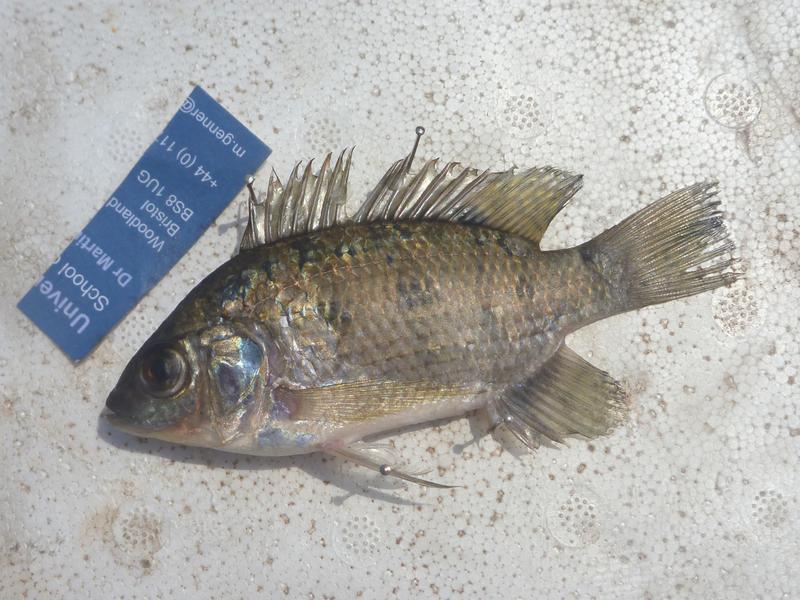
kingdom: Animalia
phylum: Chordata
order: Perciformes
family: Cichlidae
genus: Oreochromis
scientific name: Oreochromis leucostictus
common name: Blue spotted tilapia
